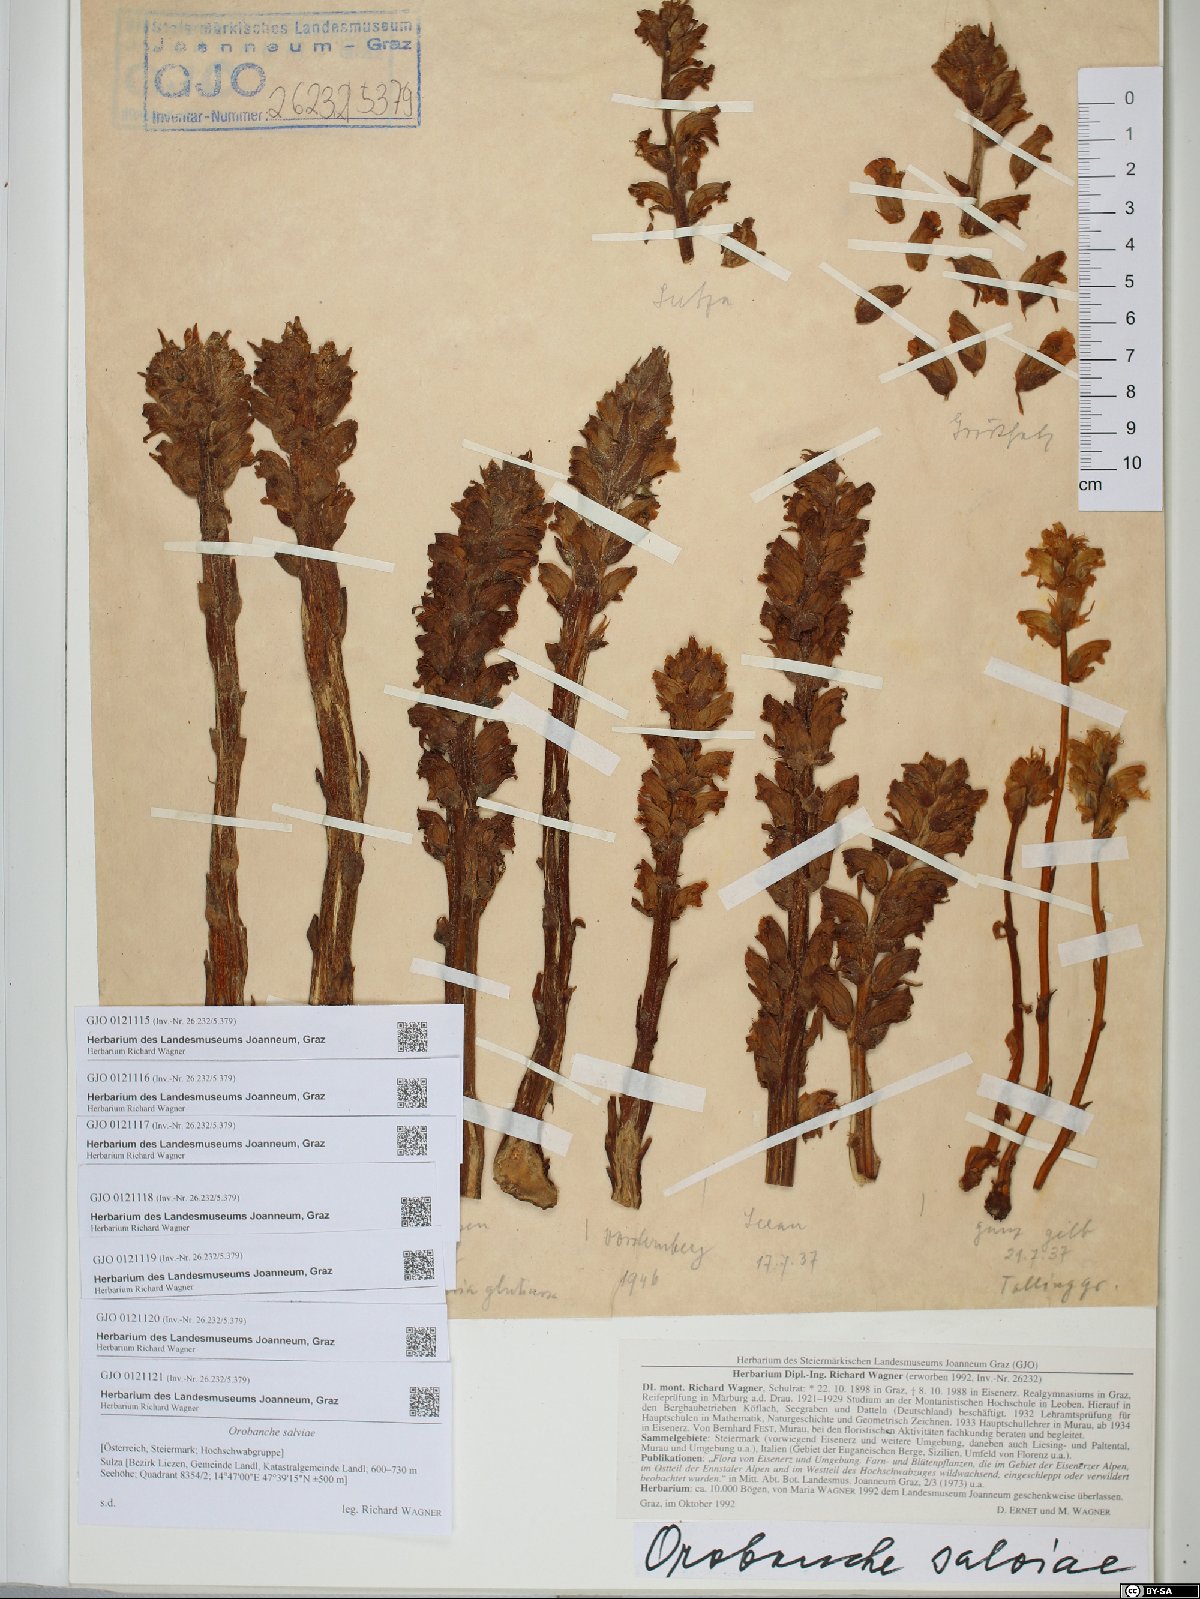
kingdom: Plantae
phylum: Tracheophyta
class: Magnoliopsida
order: Lamiales
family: Orobanchaceae
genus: Orobanche
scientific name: Orobanche salviae
